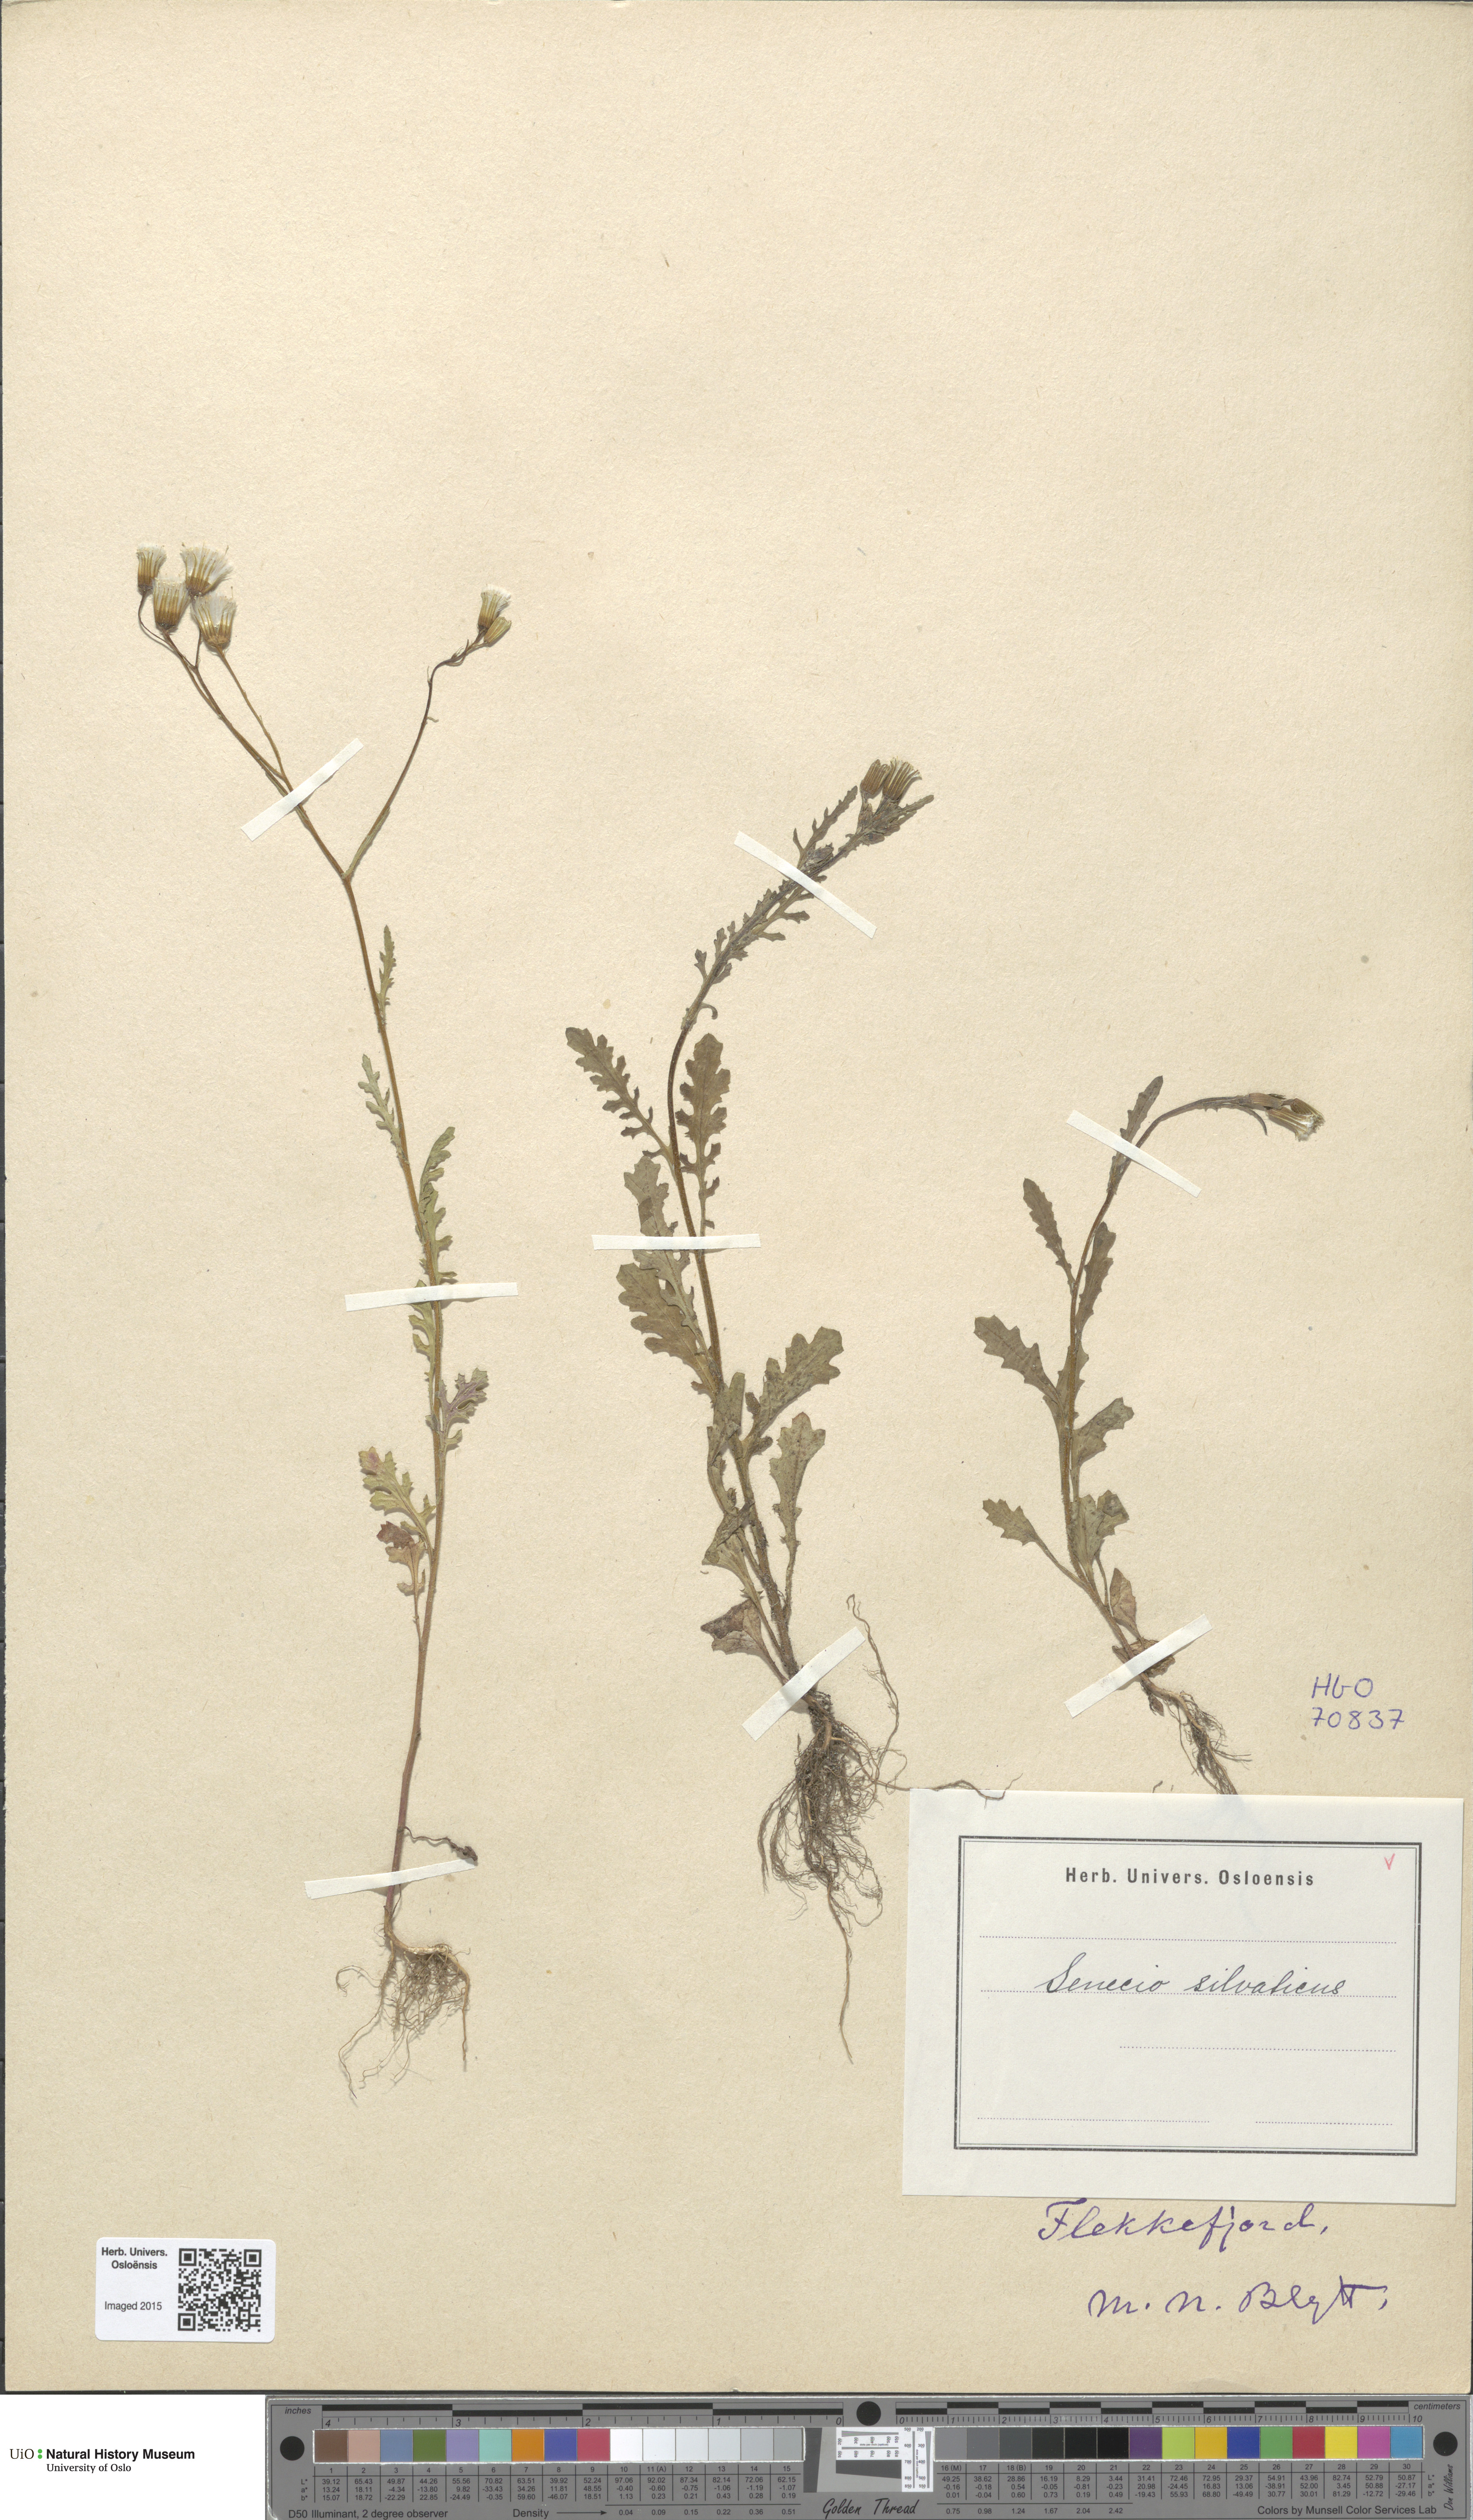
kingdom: Plantae
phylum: Tracheophyta
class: Magnoliopsida
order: Asterales
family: Asteraceae
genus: Senecio
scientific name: Senecio sylvaticus
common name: Woodland ragwort
